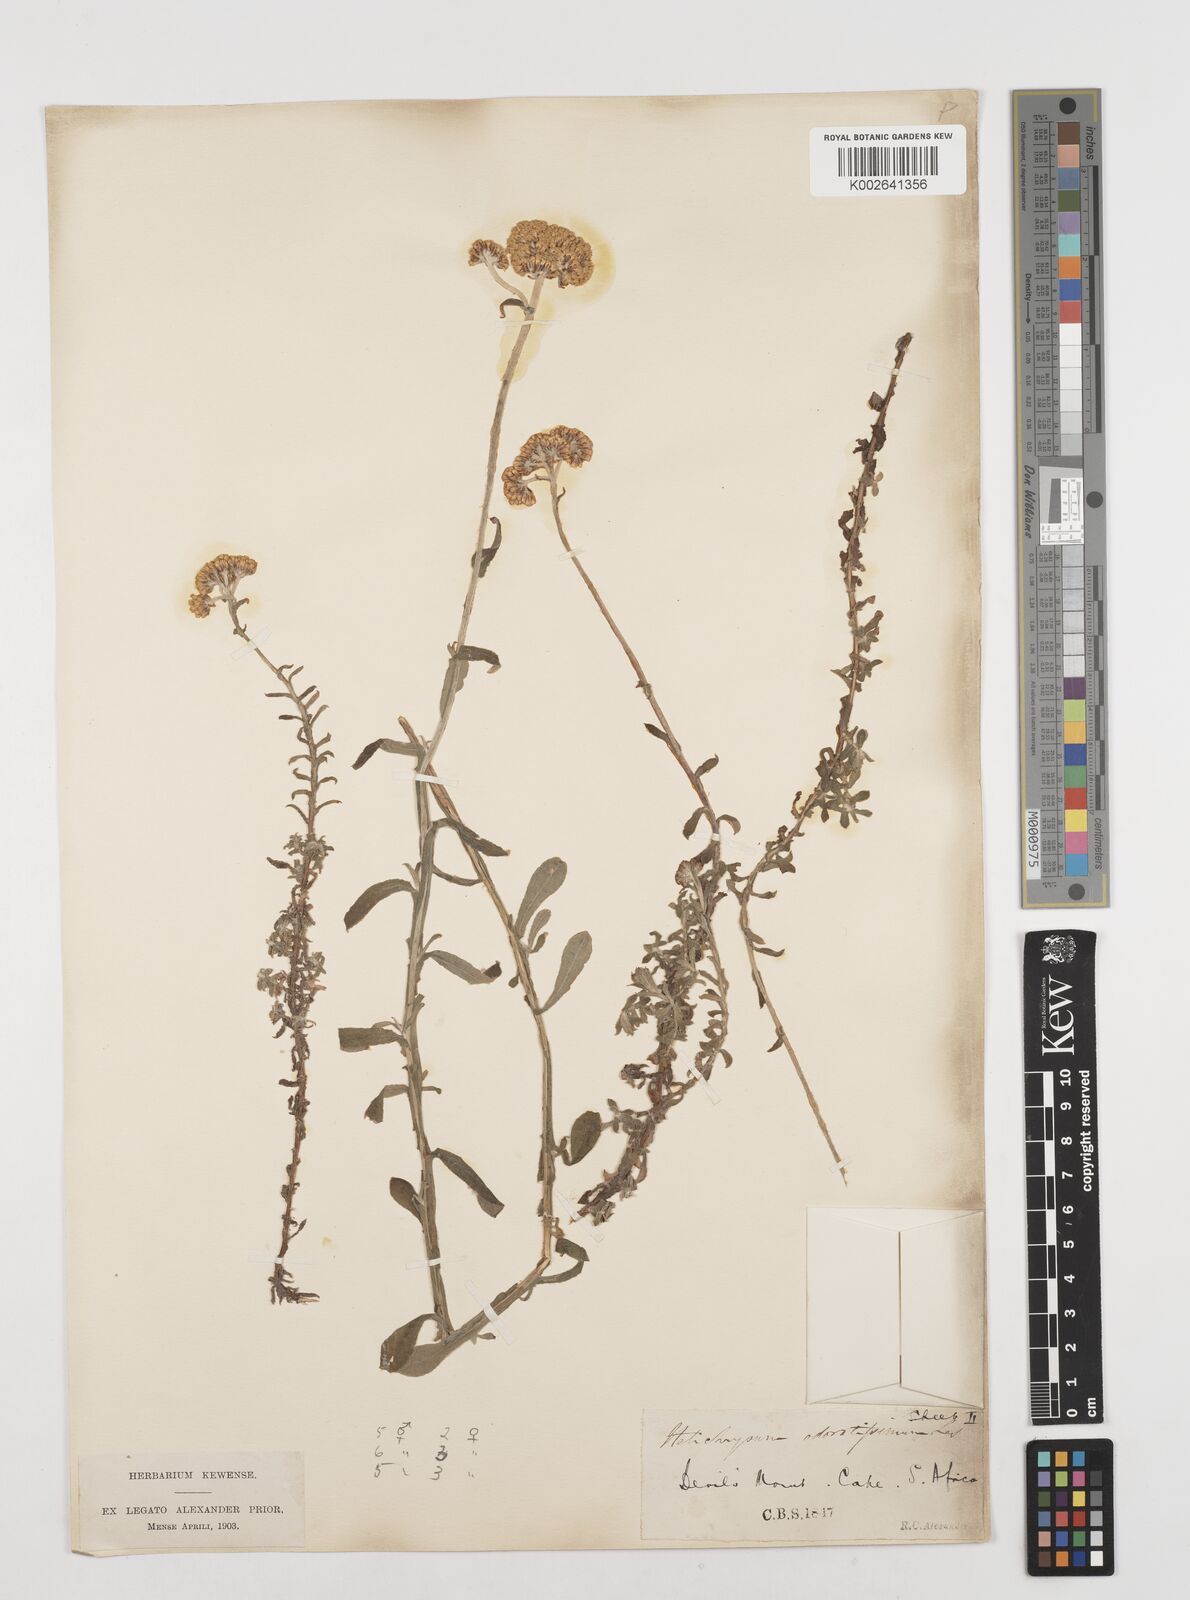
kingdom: Plantae
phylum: Tracheophyta
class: Magnoliopsida
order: Asterales
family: Asteraceae
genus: Helichrysum
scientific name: Helichrysum odoratissimum
